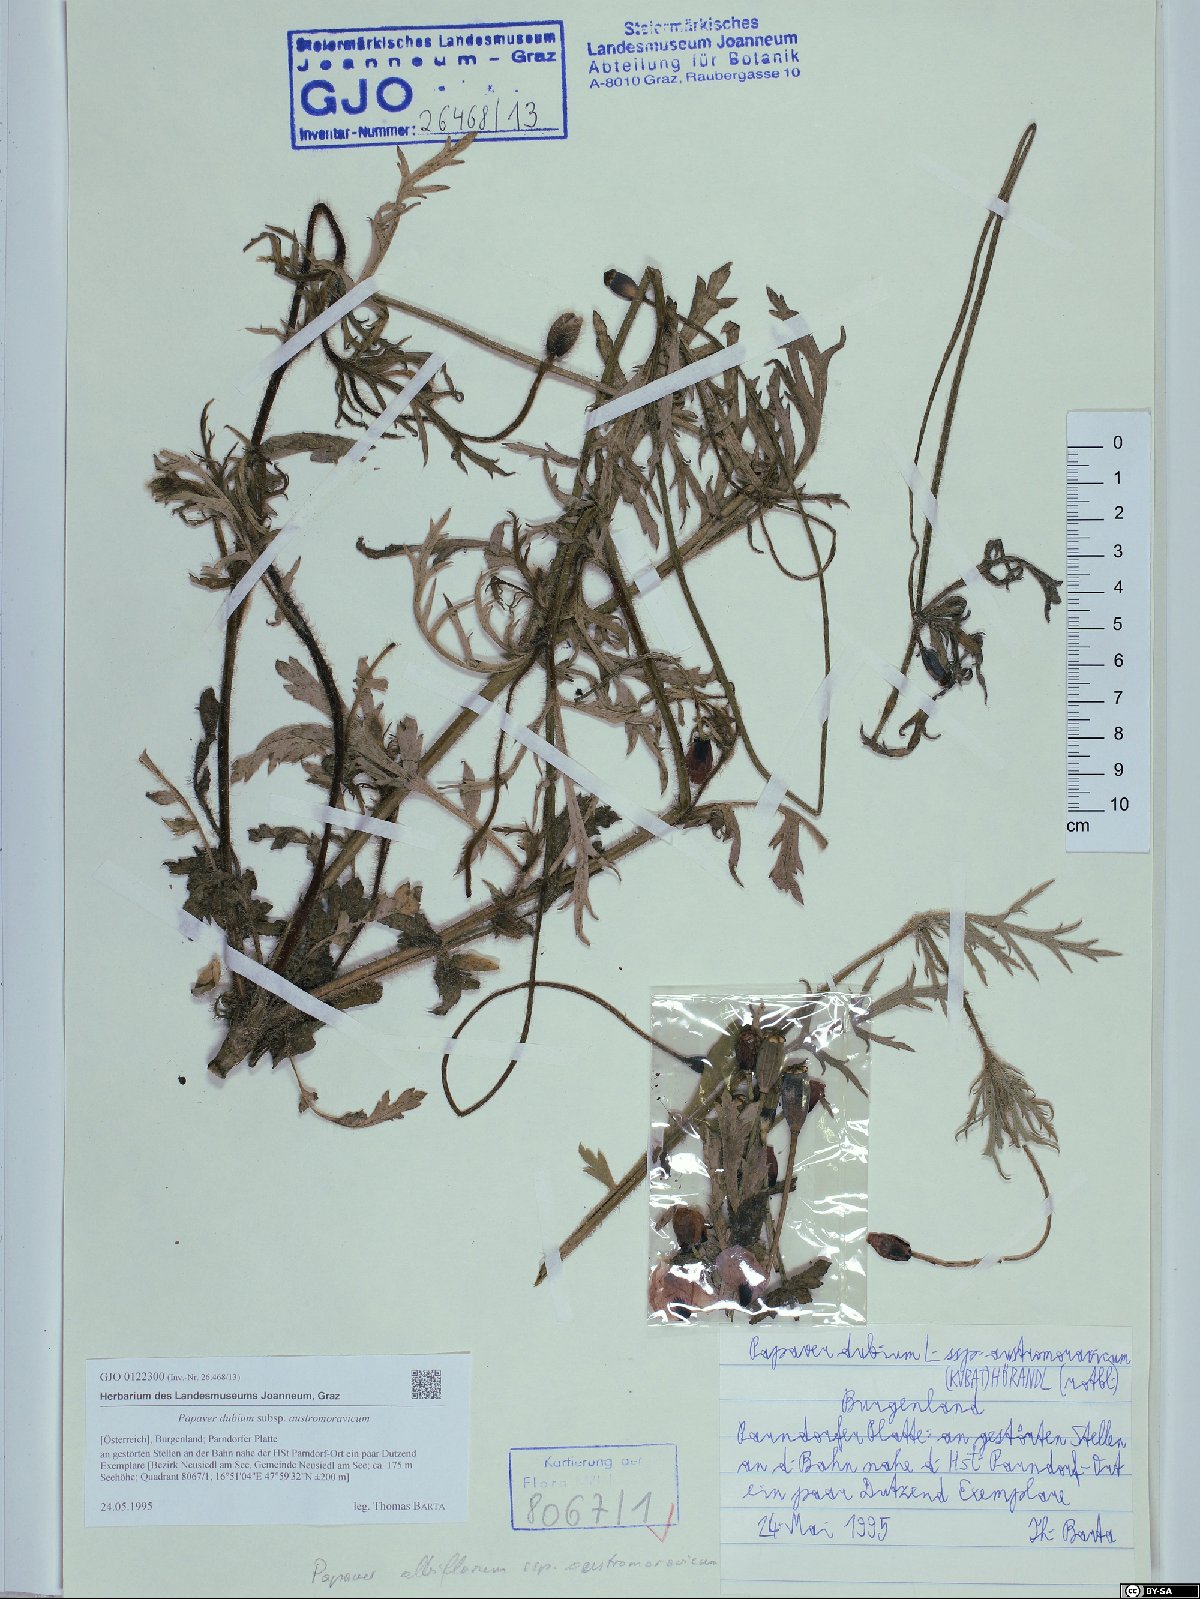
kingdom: Plantae
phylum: Tracheophyta
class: Magnoliopsida
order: Ranunculales
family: Papaveraceae
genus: Papaver
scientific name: Papaver dubium
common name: Long-headed poppy
